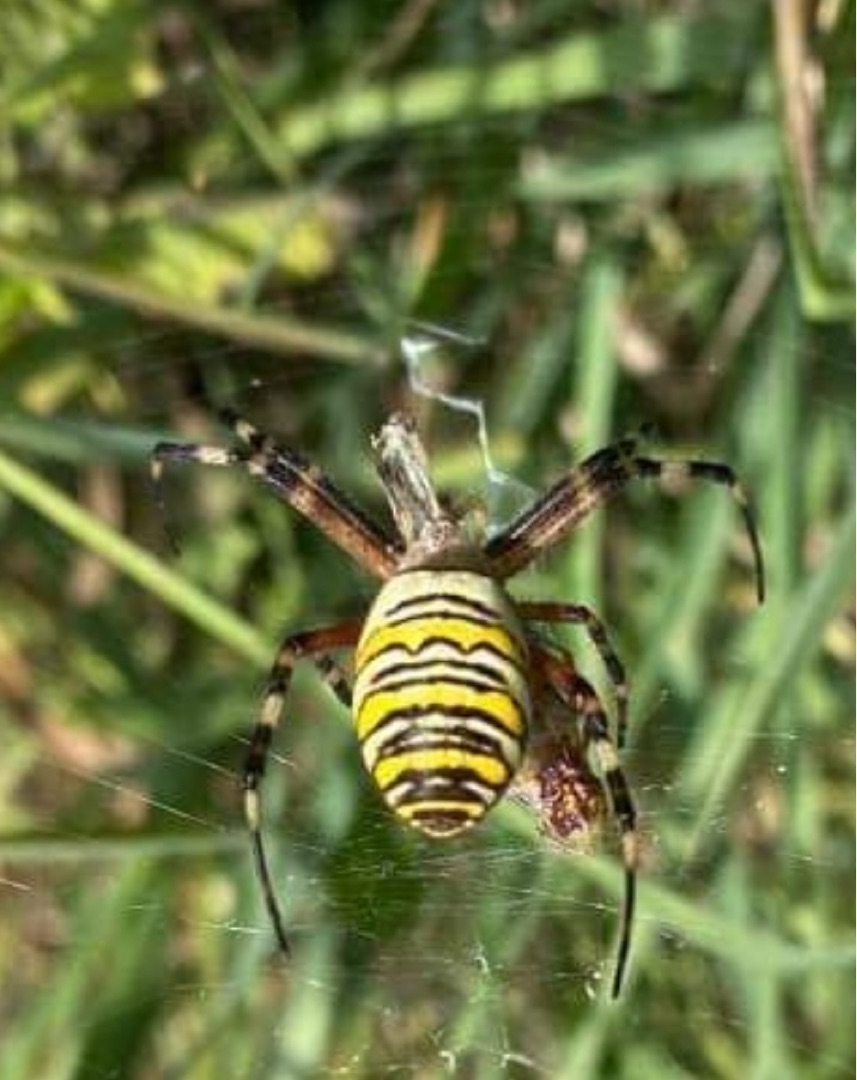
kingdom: Animalia
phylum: Arthropoda
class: Arachnida
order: Araneae
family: Araneidae
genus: Argiope
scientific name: Argiope bruennichi
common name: Hvepseedderkop
